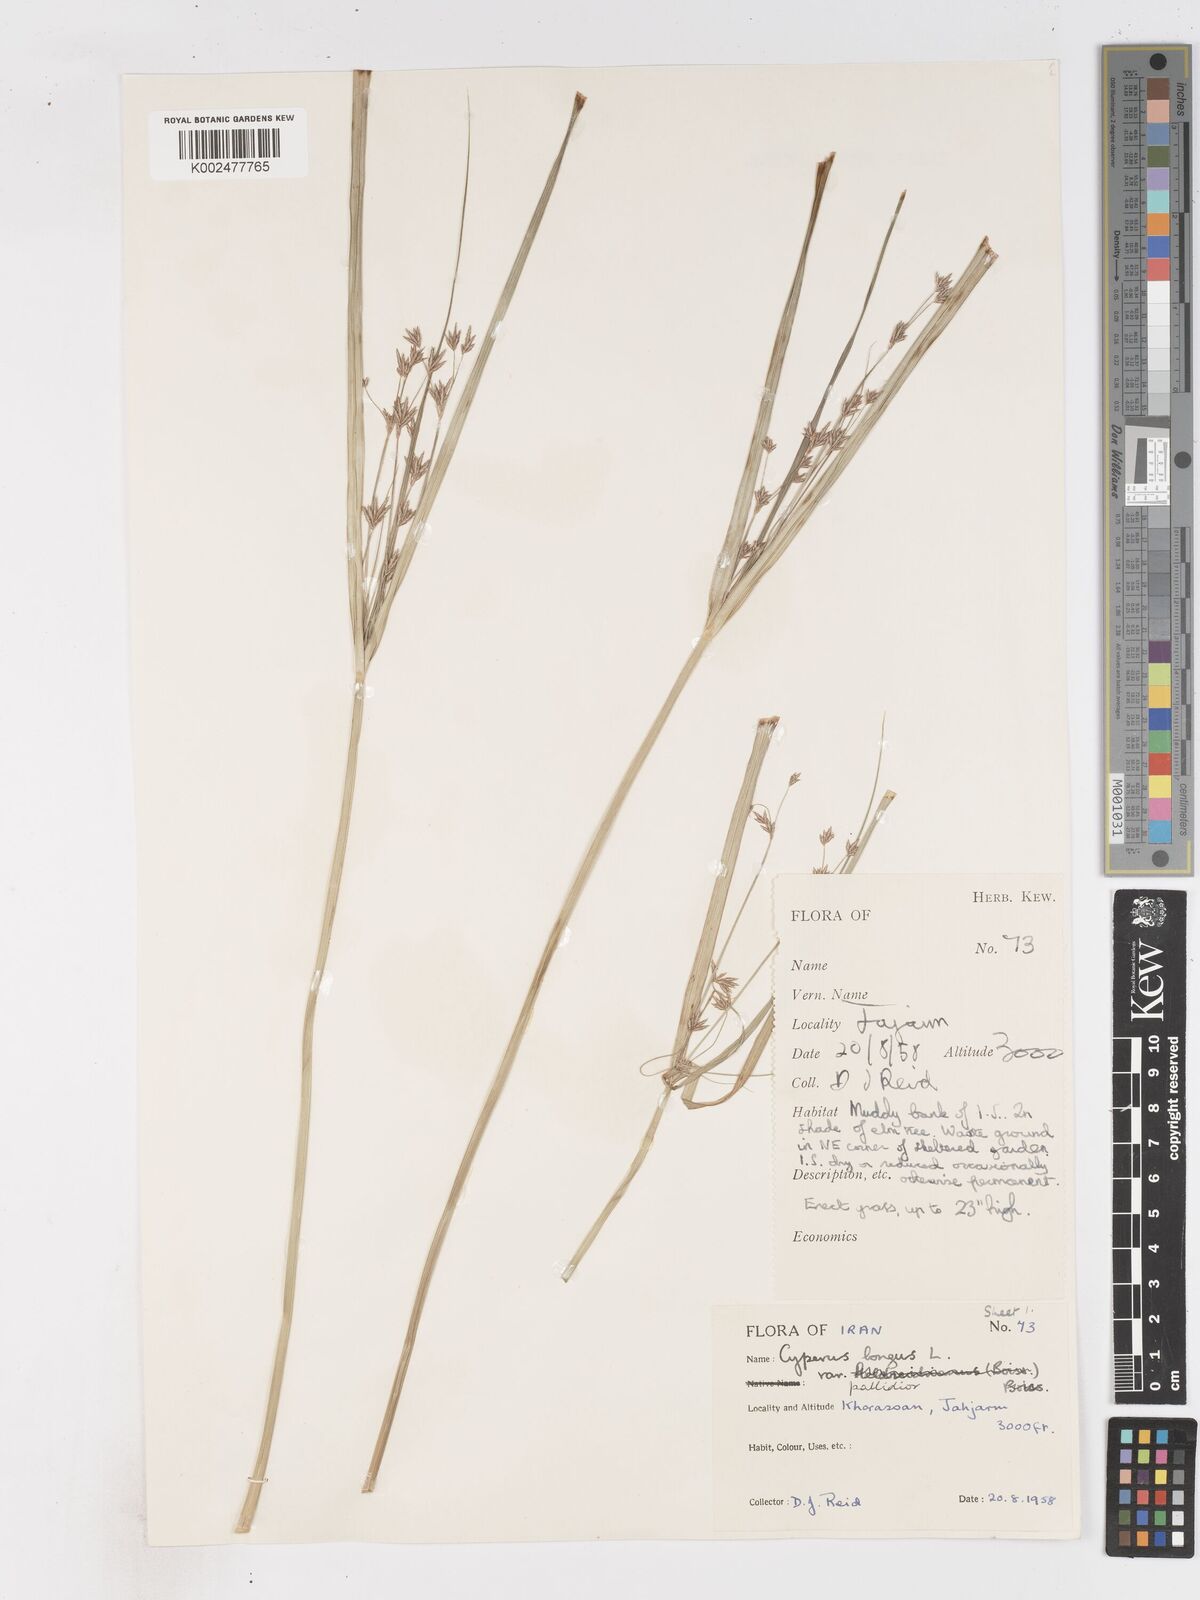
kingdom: Plantae
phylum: Tracheophyta
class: Liliopsida
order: Poales
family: Cyperaceae
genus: Cyperus
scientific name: Cyperus longus
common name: Galingale
